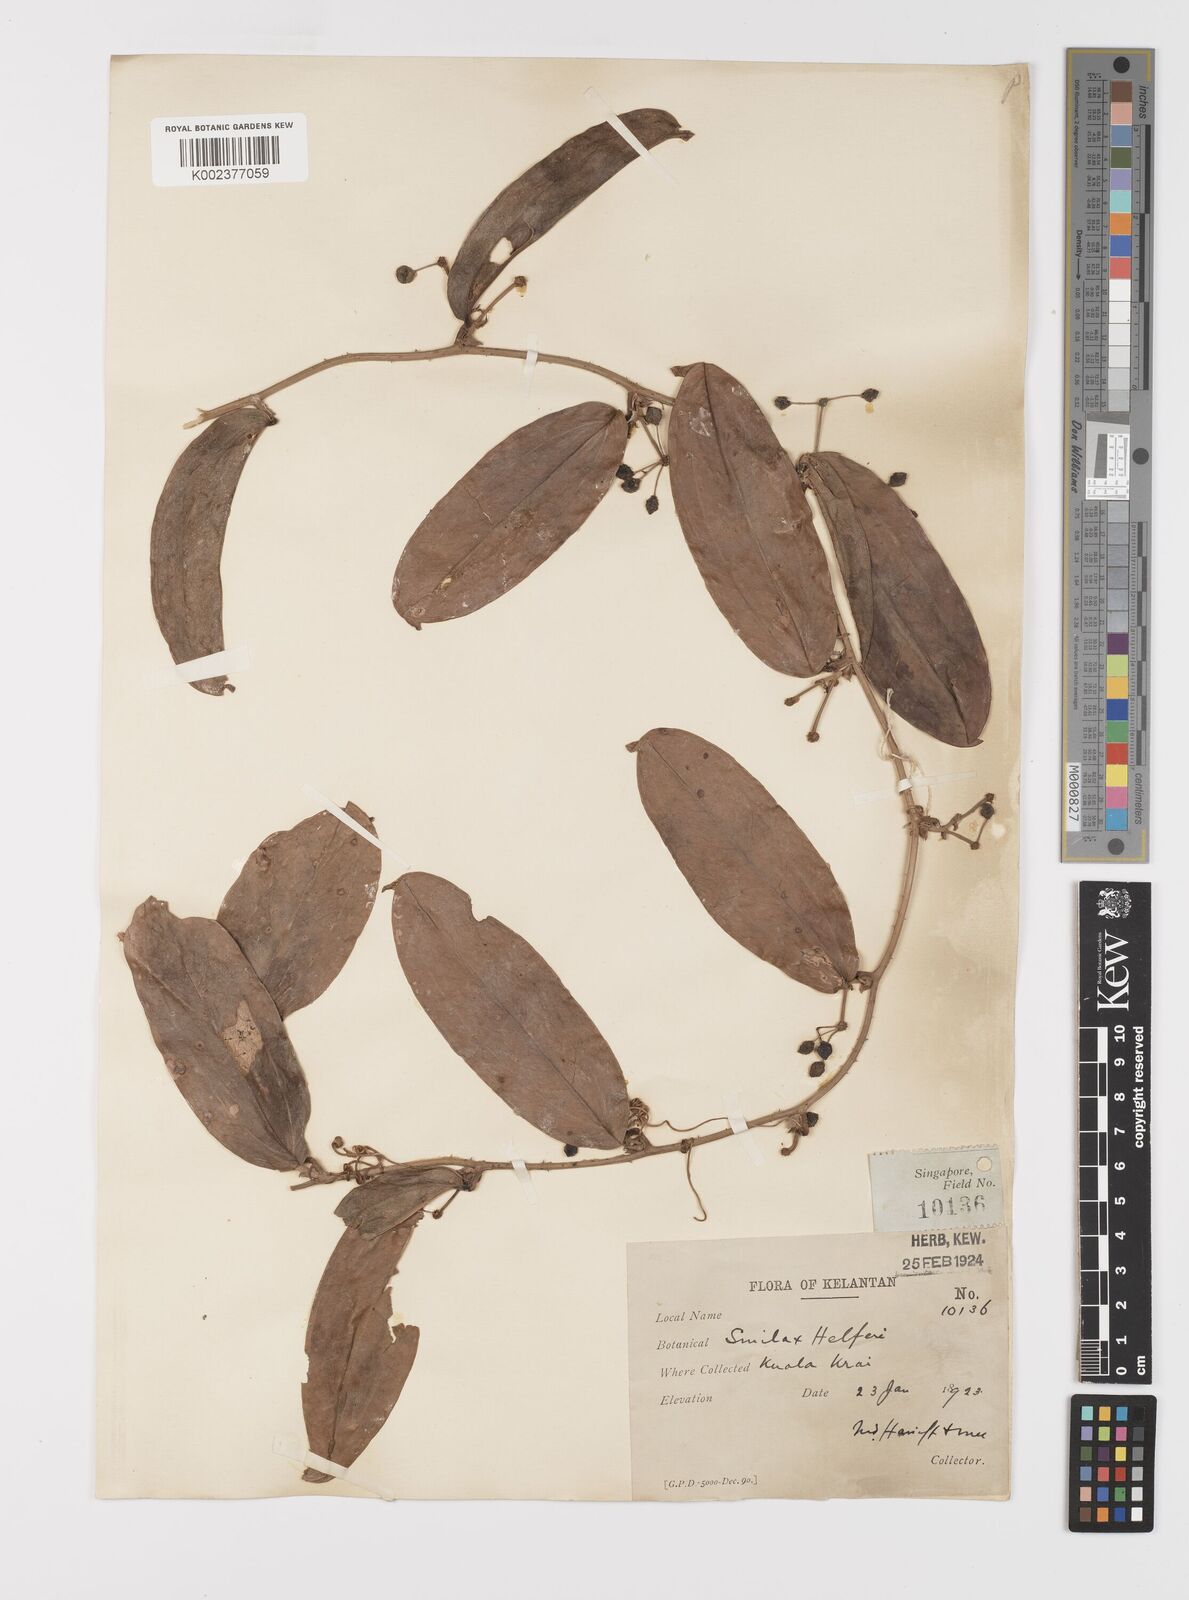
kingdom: Plantae
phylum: Tracheophyta
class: Liliopsida
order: Liliales
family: Smilacaceae
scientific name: Smilacaceae
